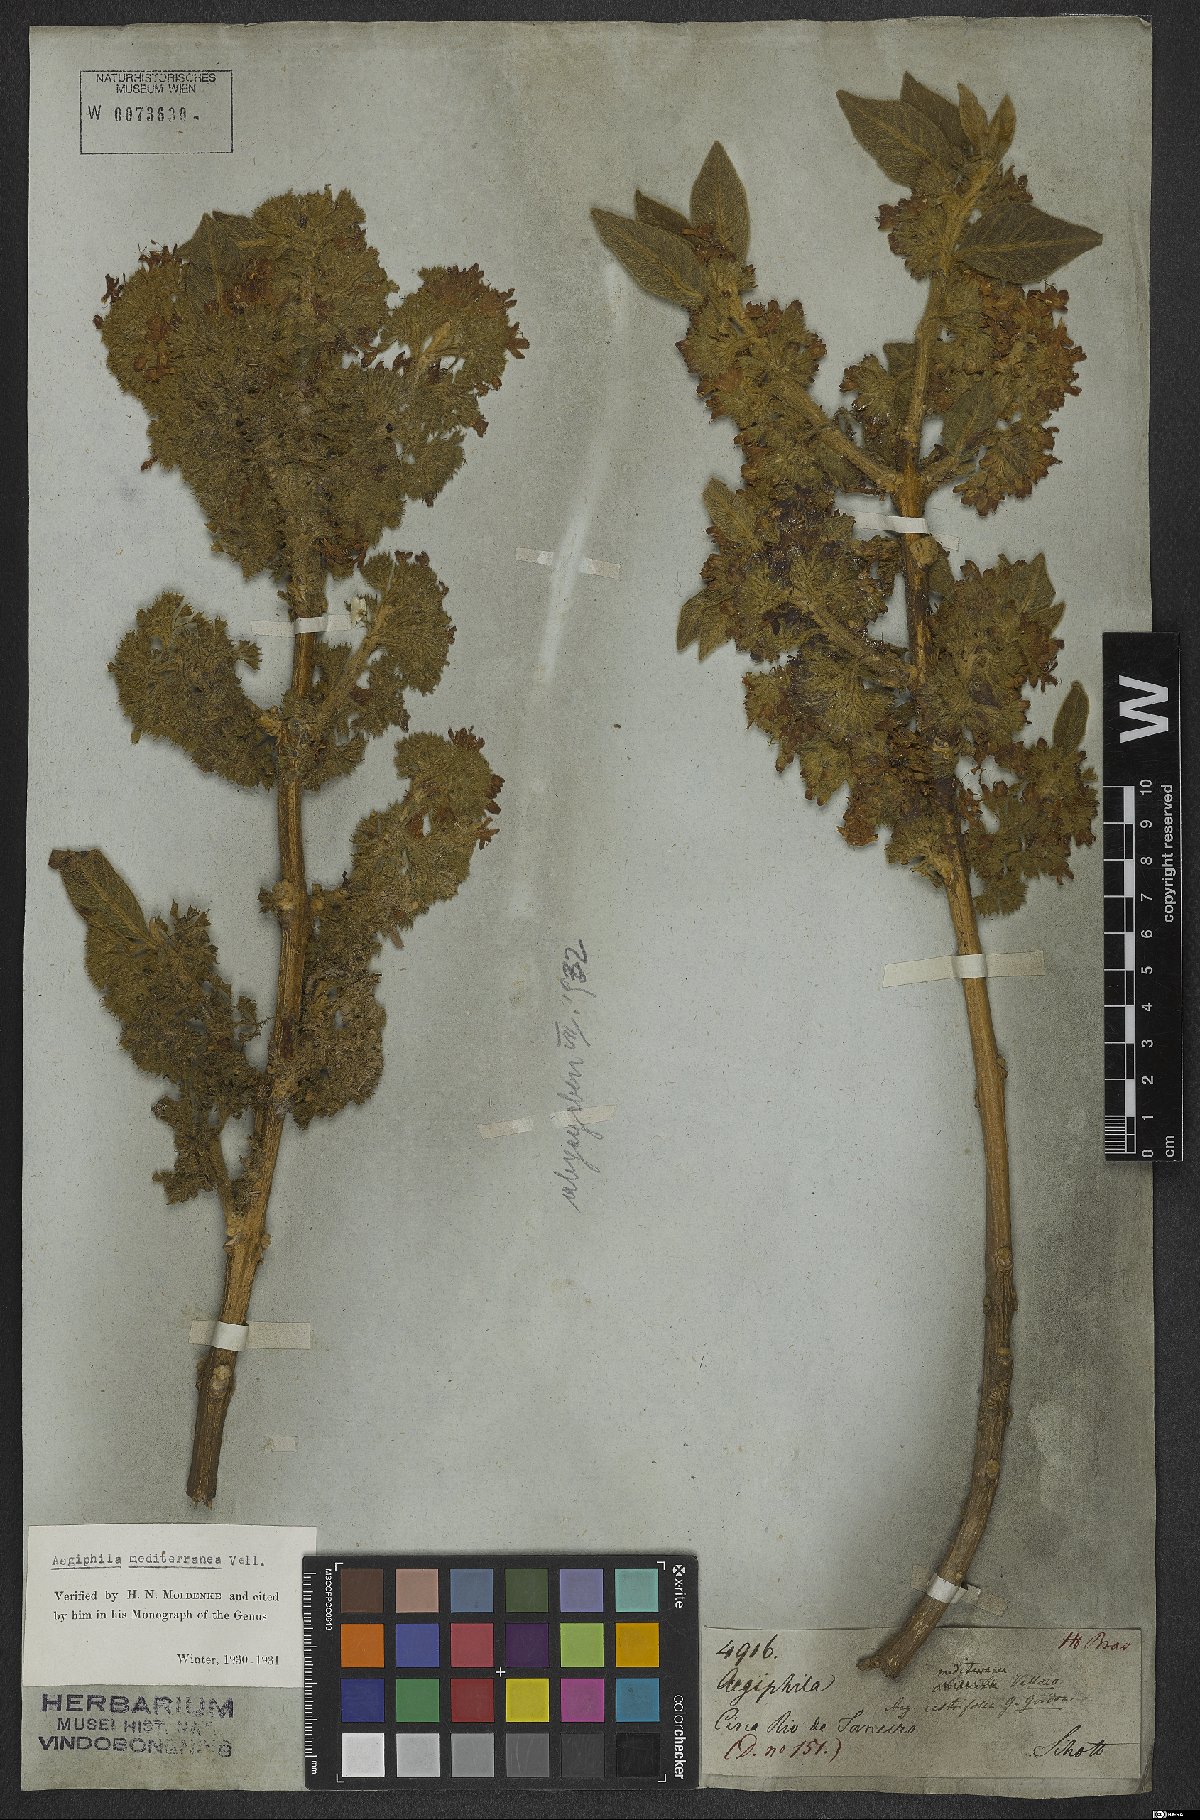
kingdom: Plantae
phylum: Tracheophyta
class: Magnoliopsida
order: Lamiales
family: Lamiaceae
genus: Aegiphila
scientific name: Aegiphila mediterranea
